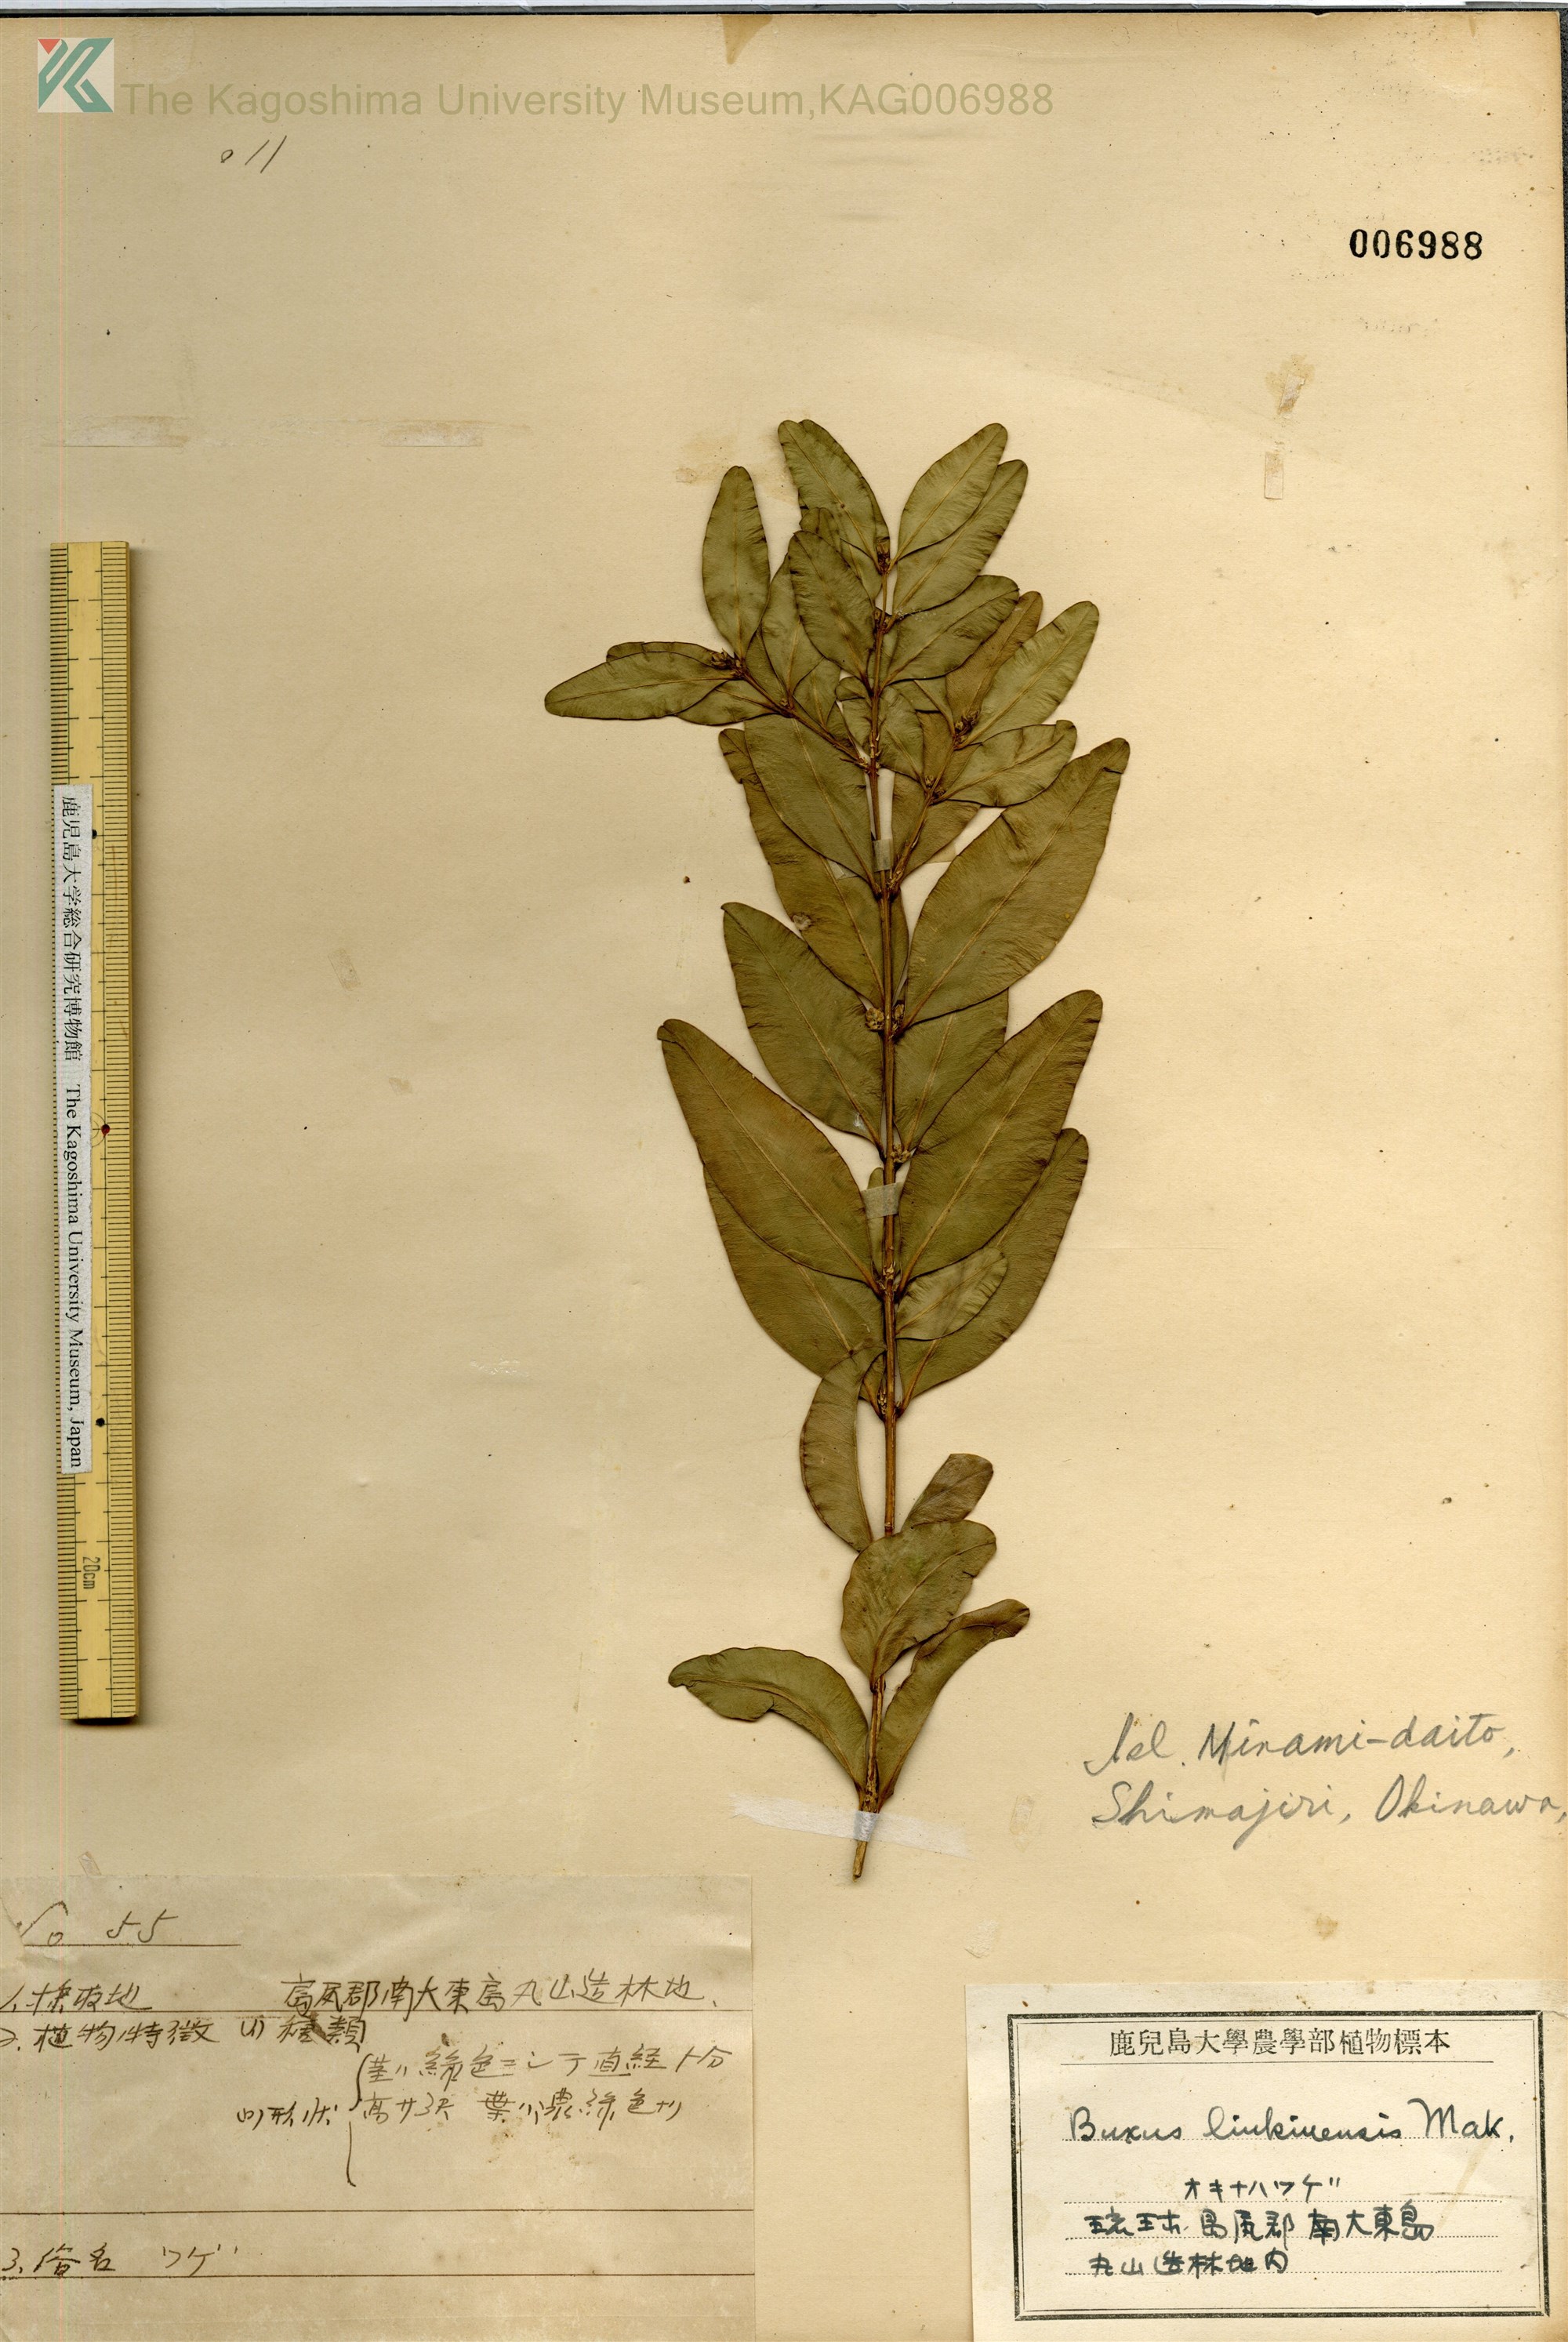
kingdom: Plantae
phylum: Tracheophyta
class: Magnoliopsida
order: Buxales
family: Buxaceae
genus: Buxus
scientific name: Buxus liukiuensis
